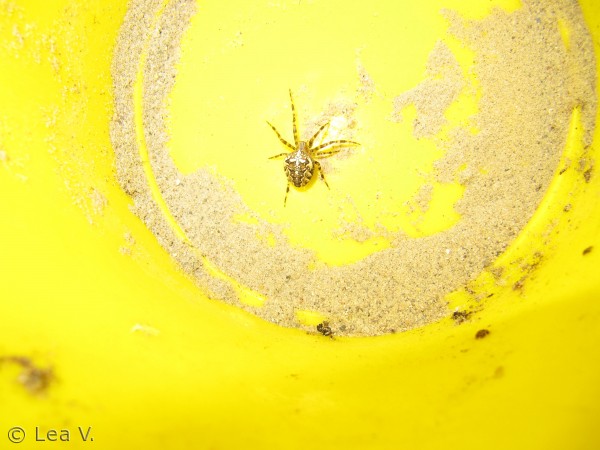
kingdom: Animalia
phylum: Arthropoda
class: Arachnida
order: Araneae
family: Araneidae
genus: Araneus
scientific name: Araneus diadematus
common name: Korsedderkop
